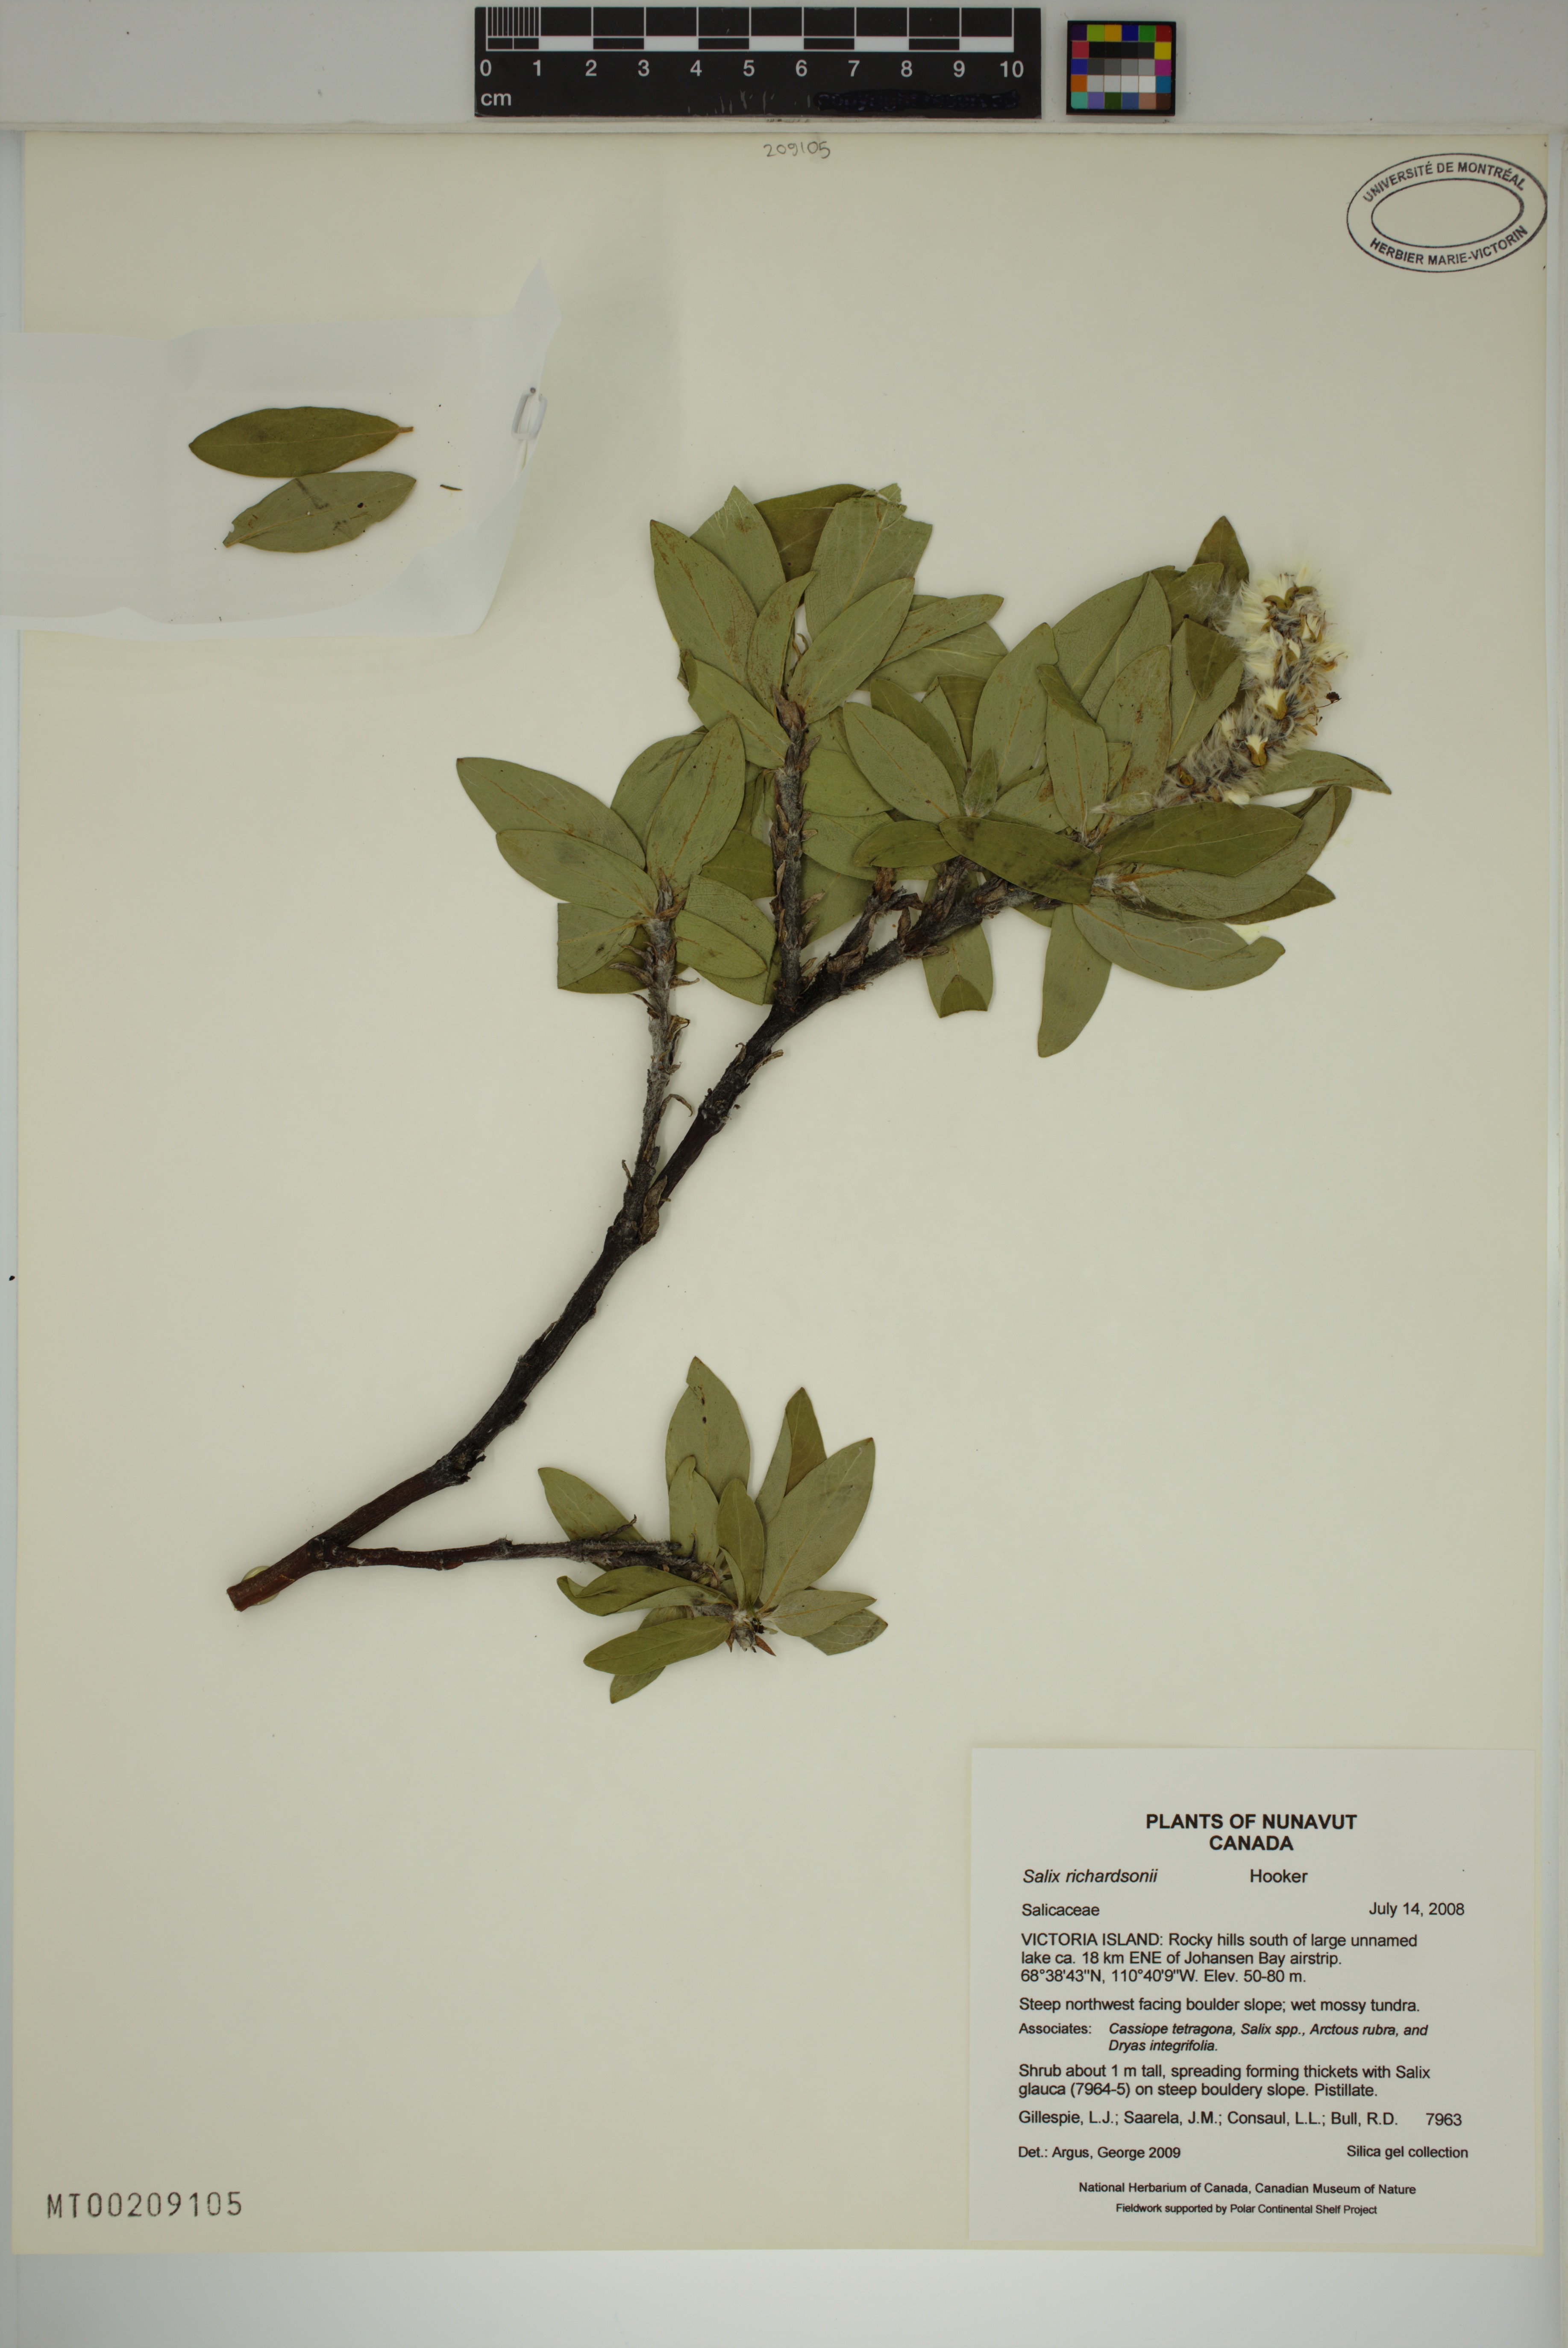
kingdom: Plantae
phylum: Tracheophyta
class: Magnoliopsida
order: Malpighiales
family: Salicaceae
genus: Salix
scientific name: Salix richardsonii
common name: Richardson’s willow
